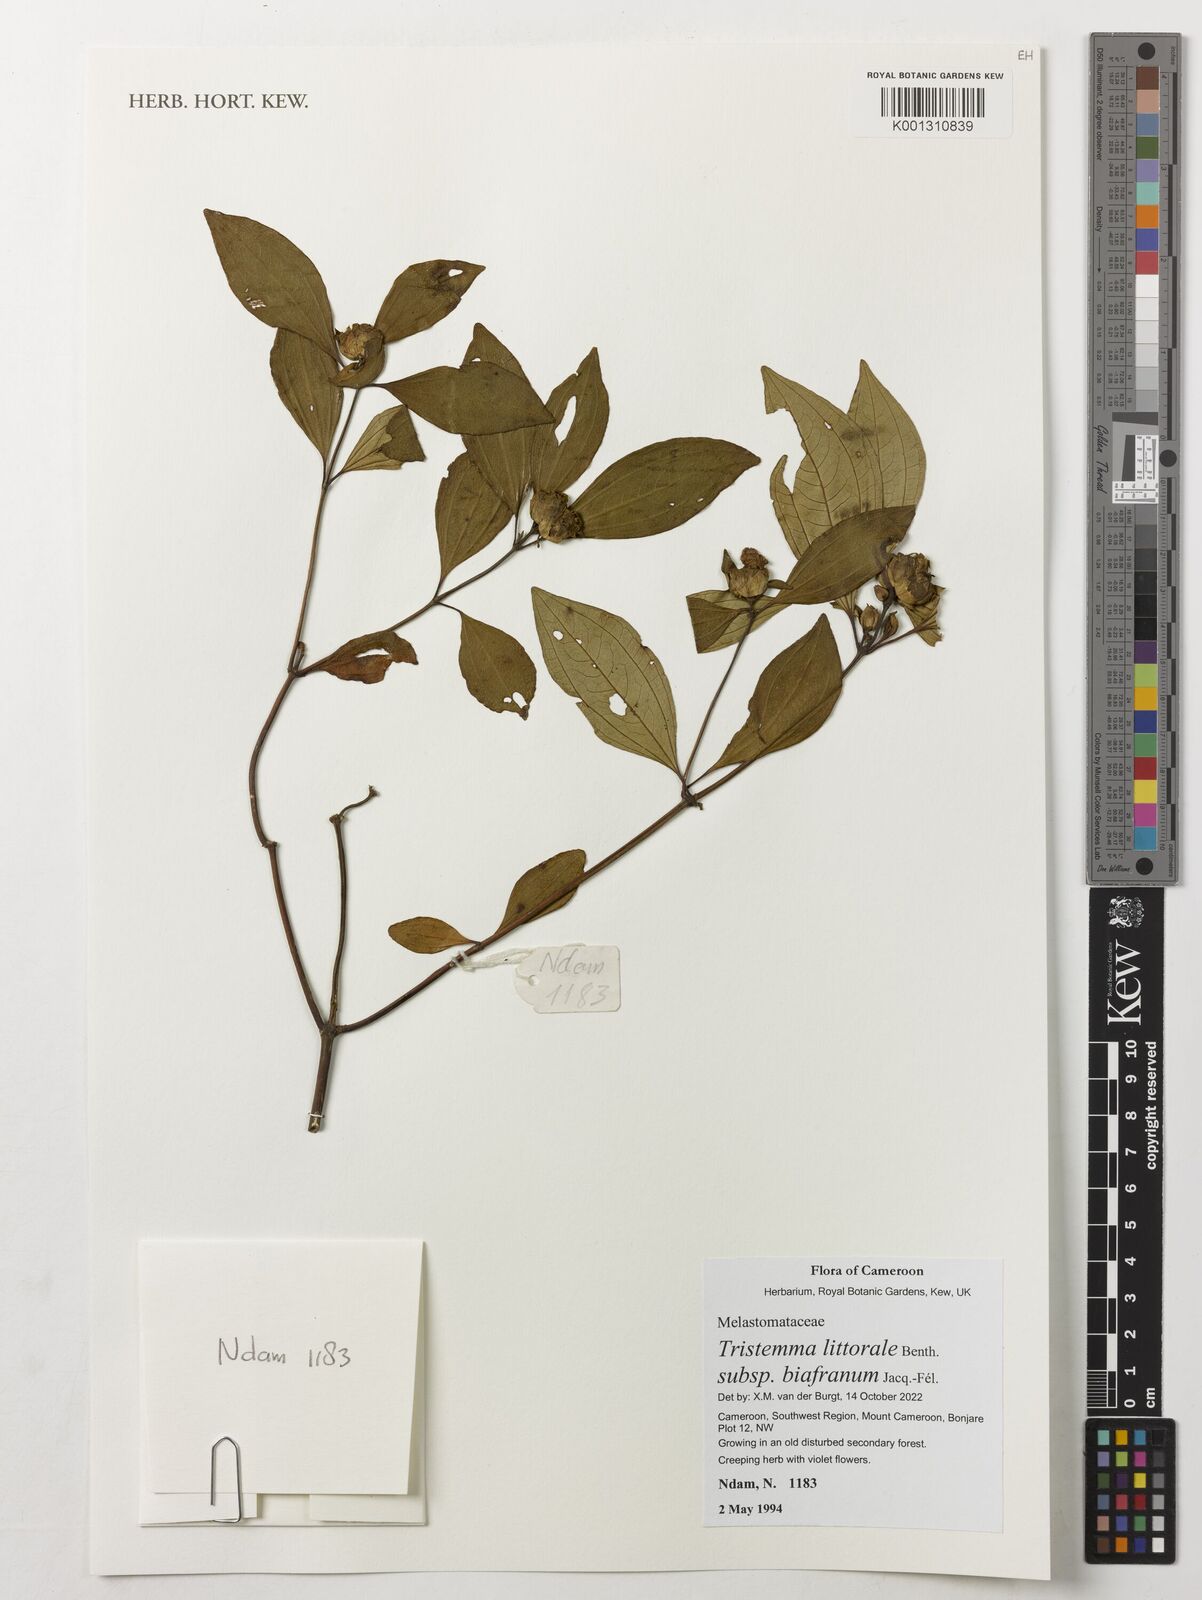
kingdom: Plantae
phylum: Tracheophyta
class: Magnoliopsida
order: Myrtales
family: Melastomataceae
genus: Tristemma
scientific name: Tristemma littorale
